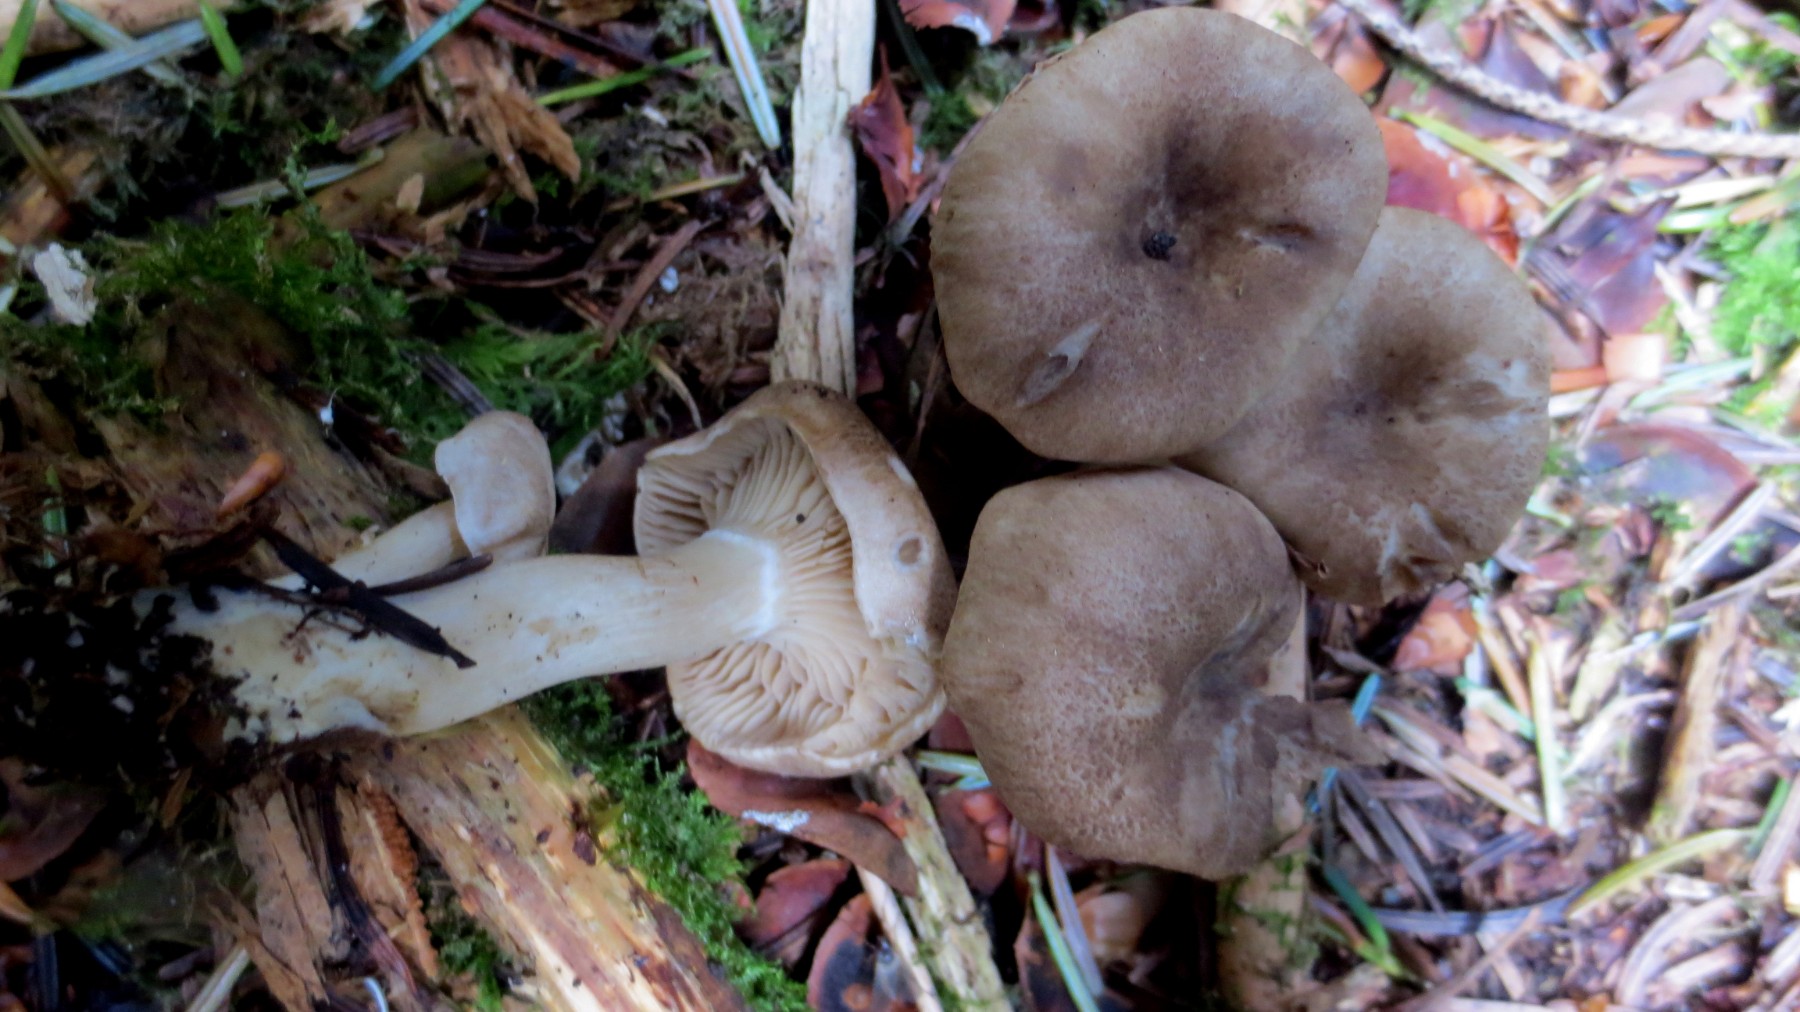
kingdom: Fungi
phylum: Basidiomycota
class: Agaricomycetes
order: Agaricales
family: Pseudoclitocybaceae
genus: Musumecia
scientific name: Musumecia bettlachensis
